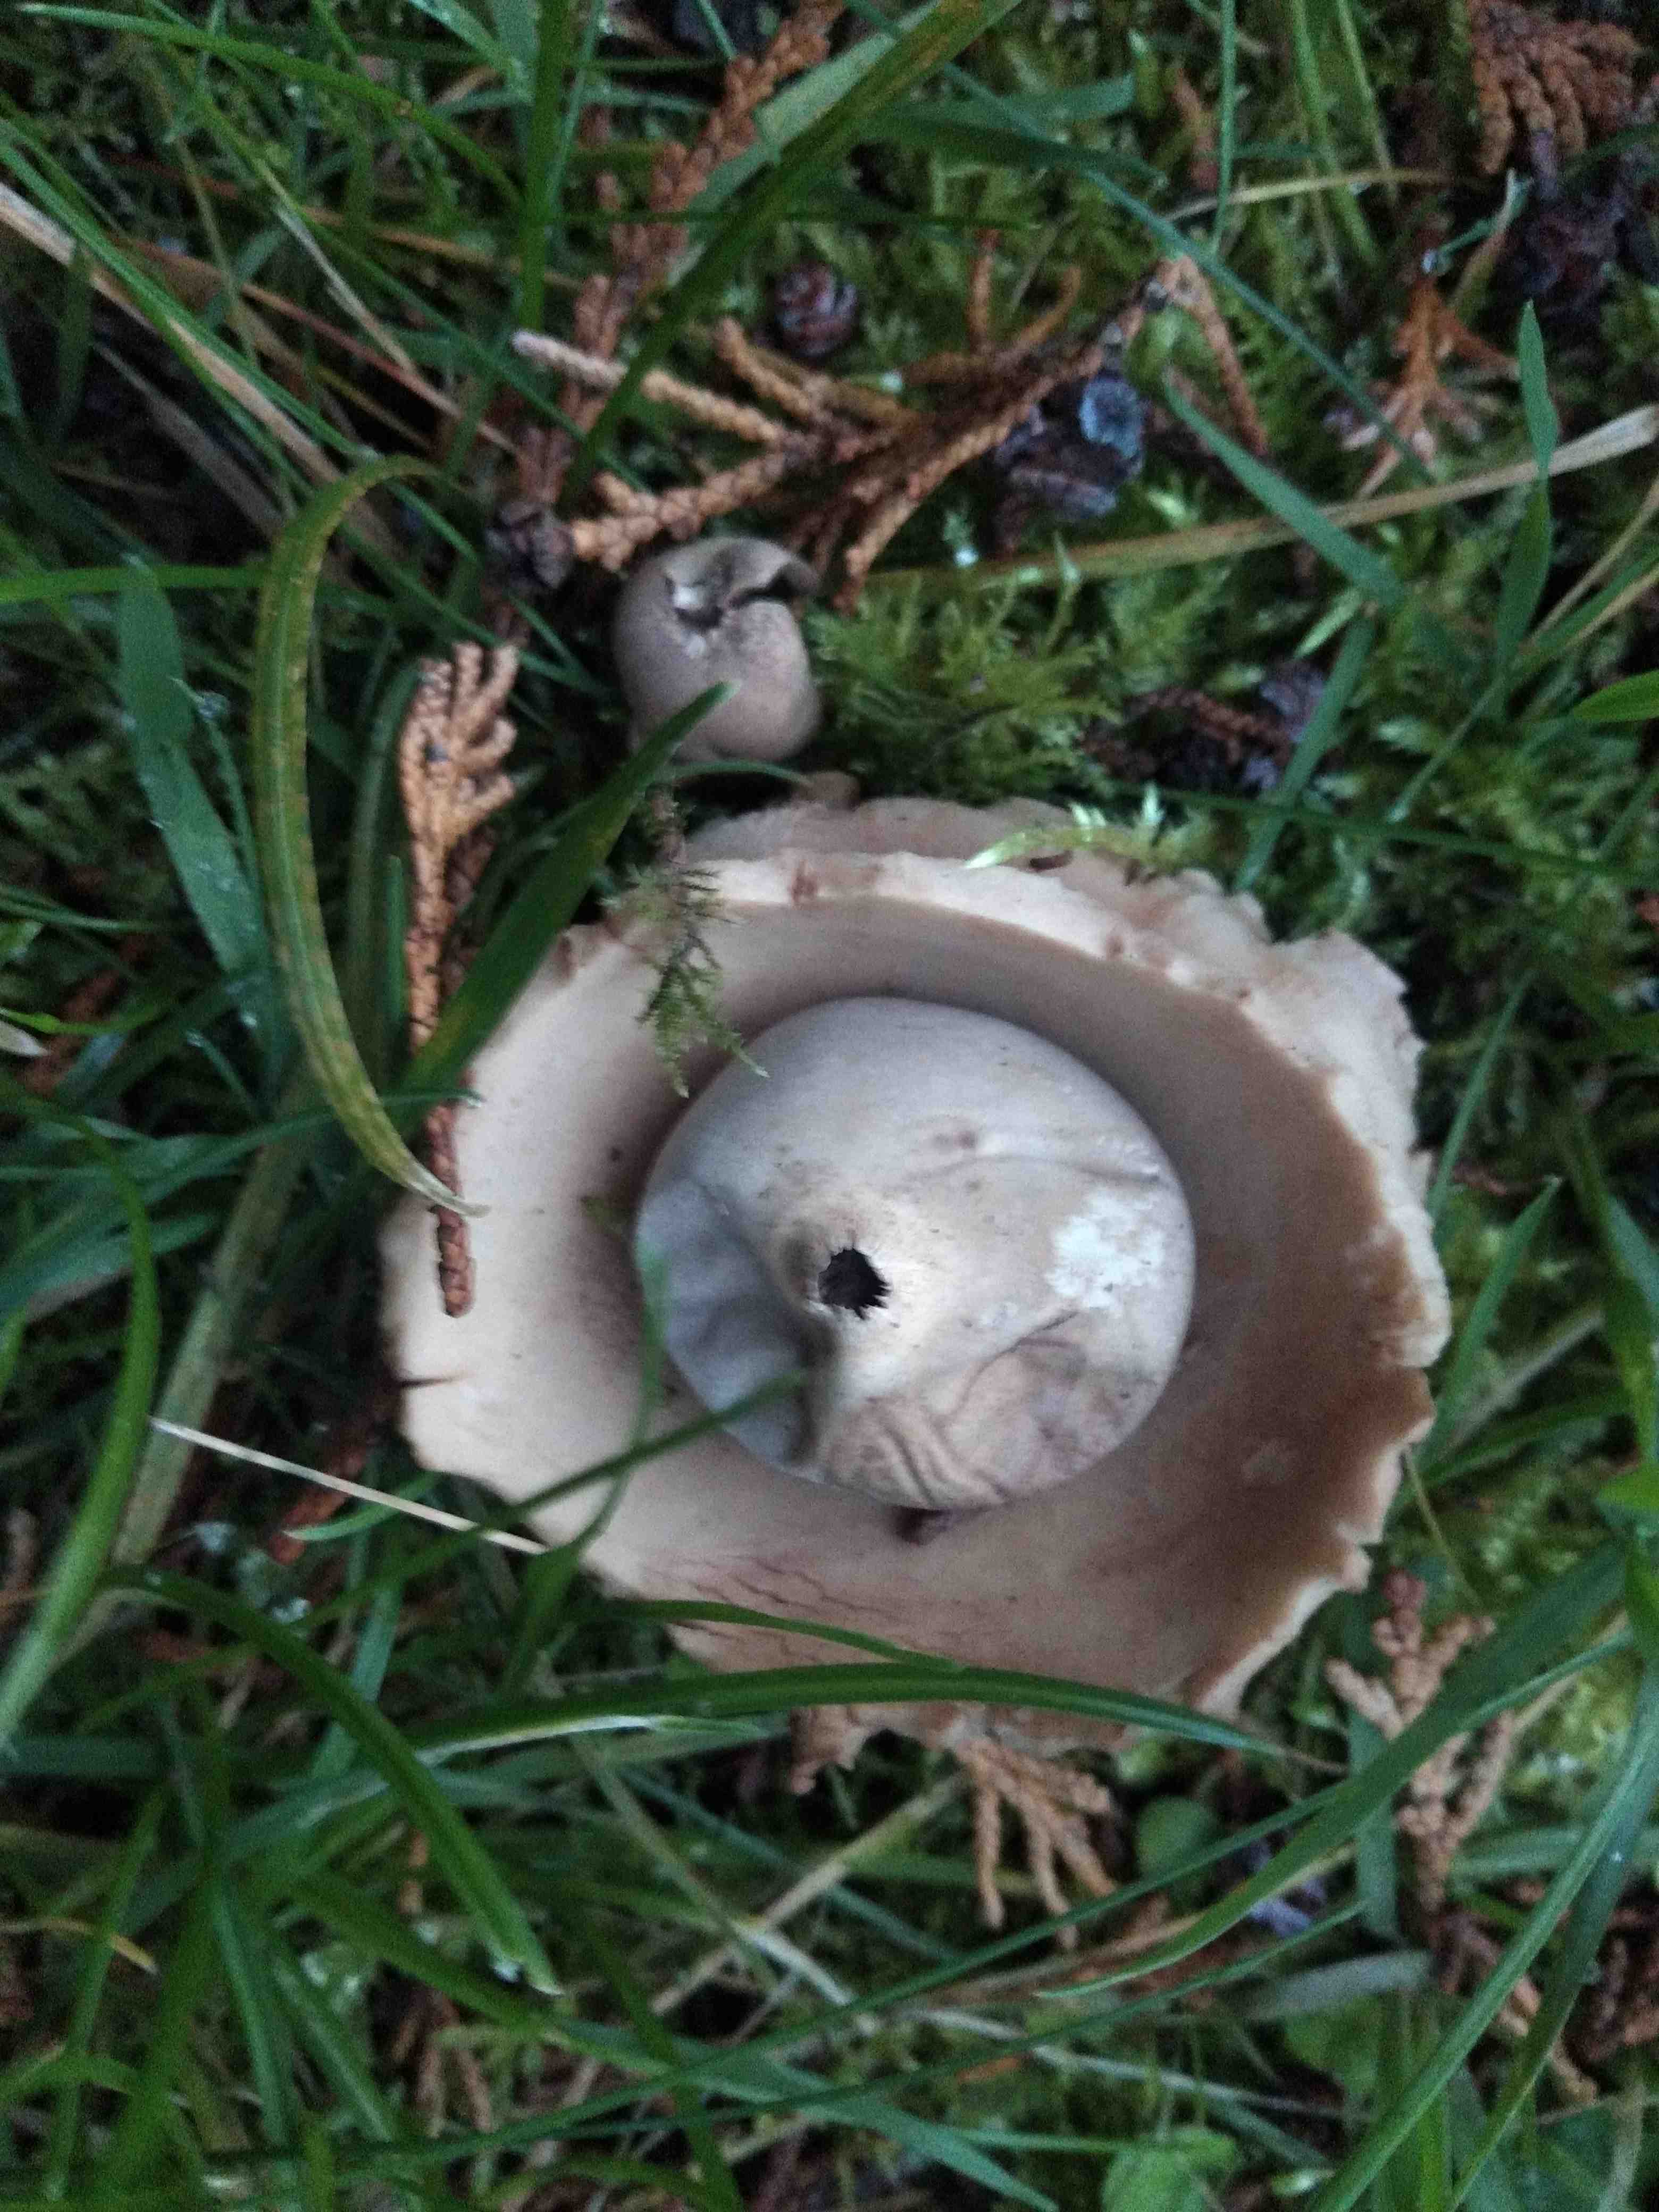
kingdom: Fungi
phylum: Basidiomycota
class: Agaricomycetes
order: Geastrales
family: Geastraceae
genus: Geastrum
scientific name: Geastrum michelianum
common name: kødet stjernebold
